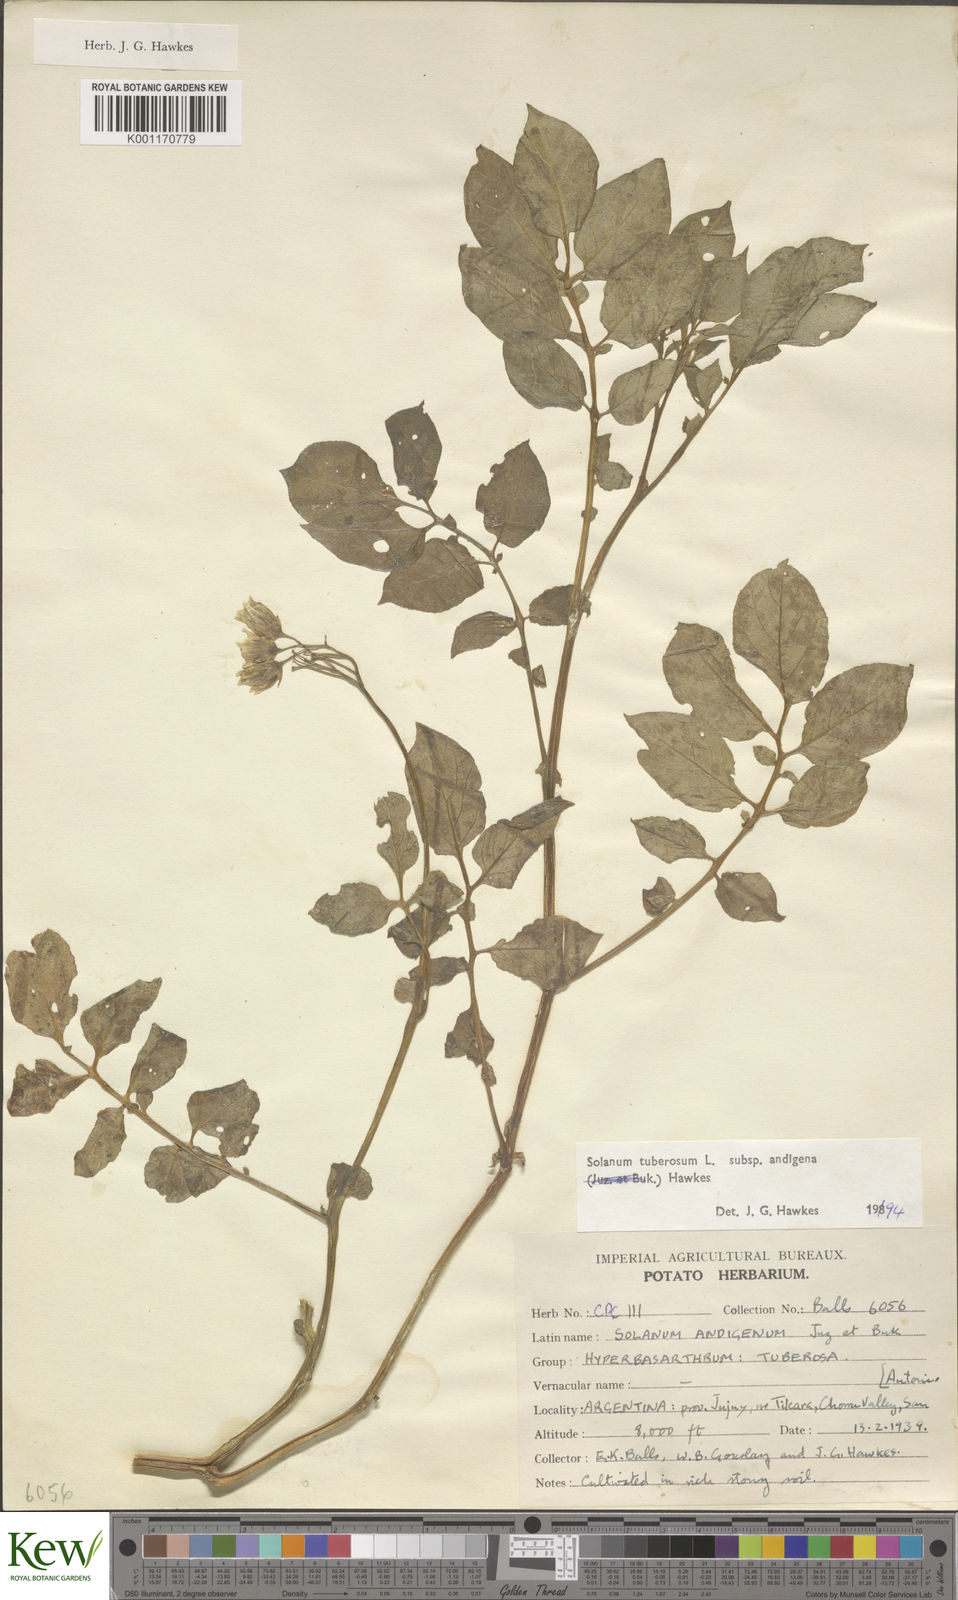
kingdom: Plantae
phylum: Tracheophyta
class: Magnoliopsida
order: Solanales
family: Solanaceae
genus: Solanum
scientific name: Solanum tuberosum
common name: Potato
